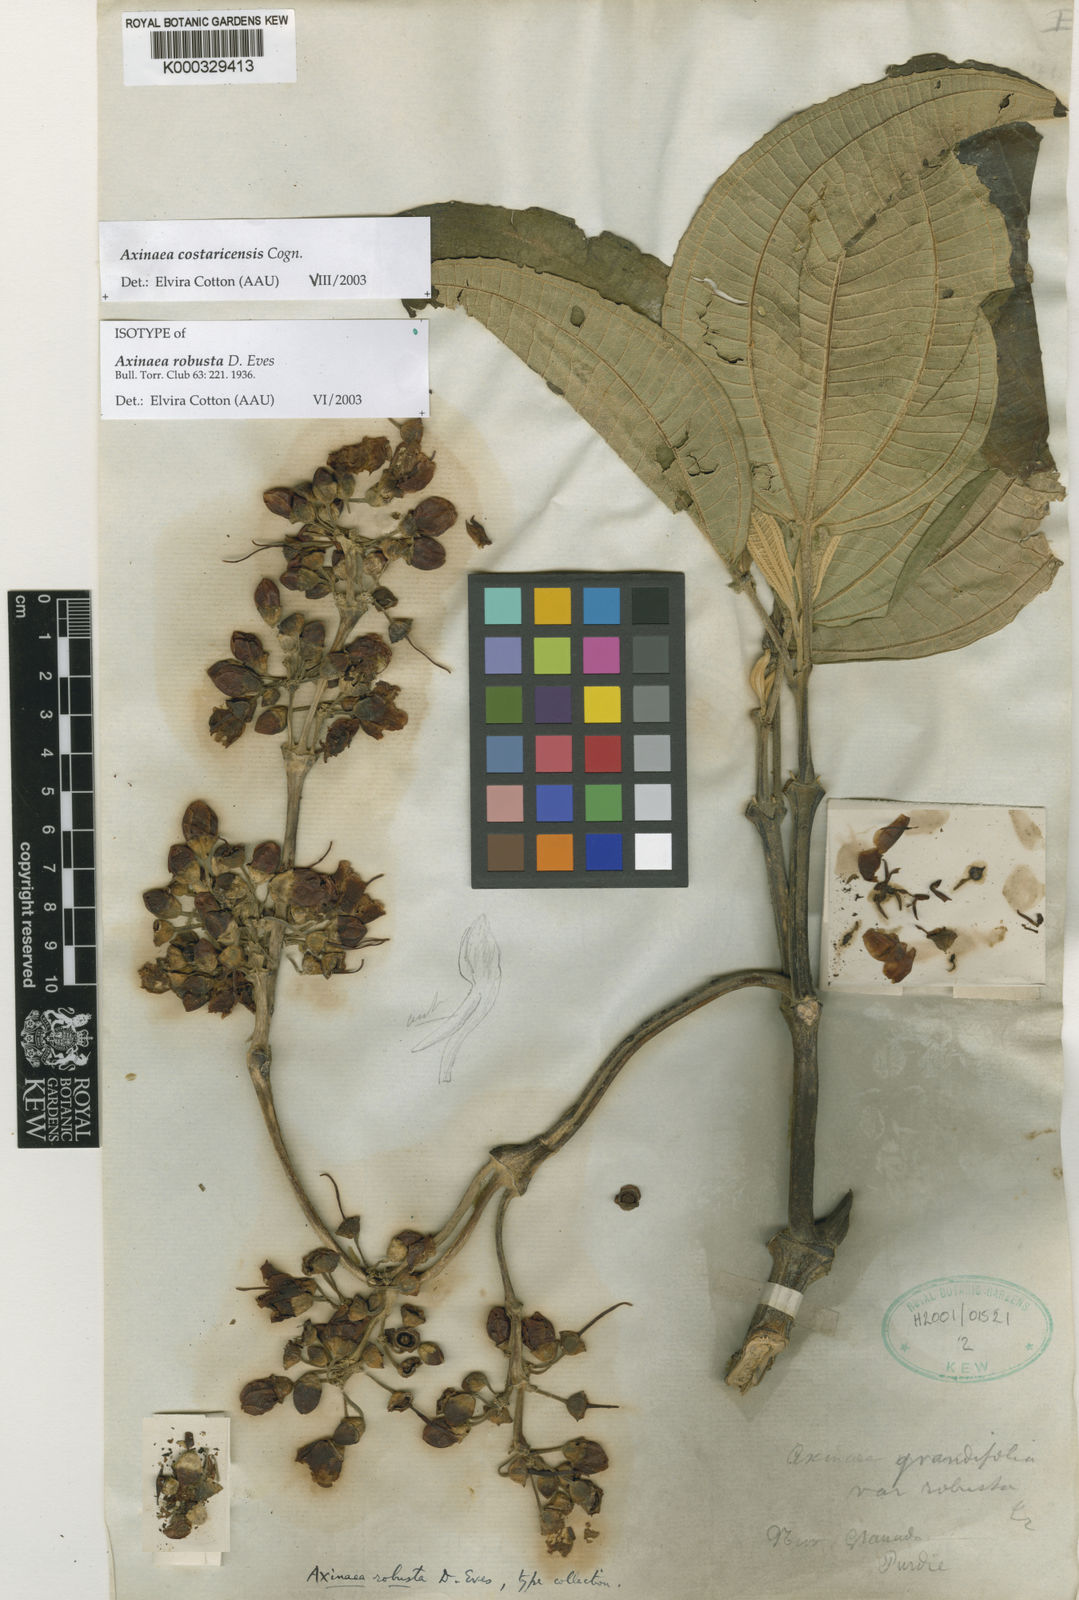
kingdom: Plantae
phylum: Tracheophyta
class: Magnoliopsida
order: Myrtales
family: Melastomataceae
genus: Axinaea
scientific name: Axinaea costaricensis
